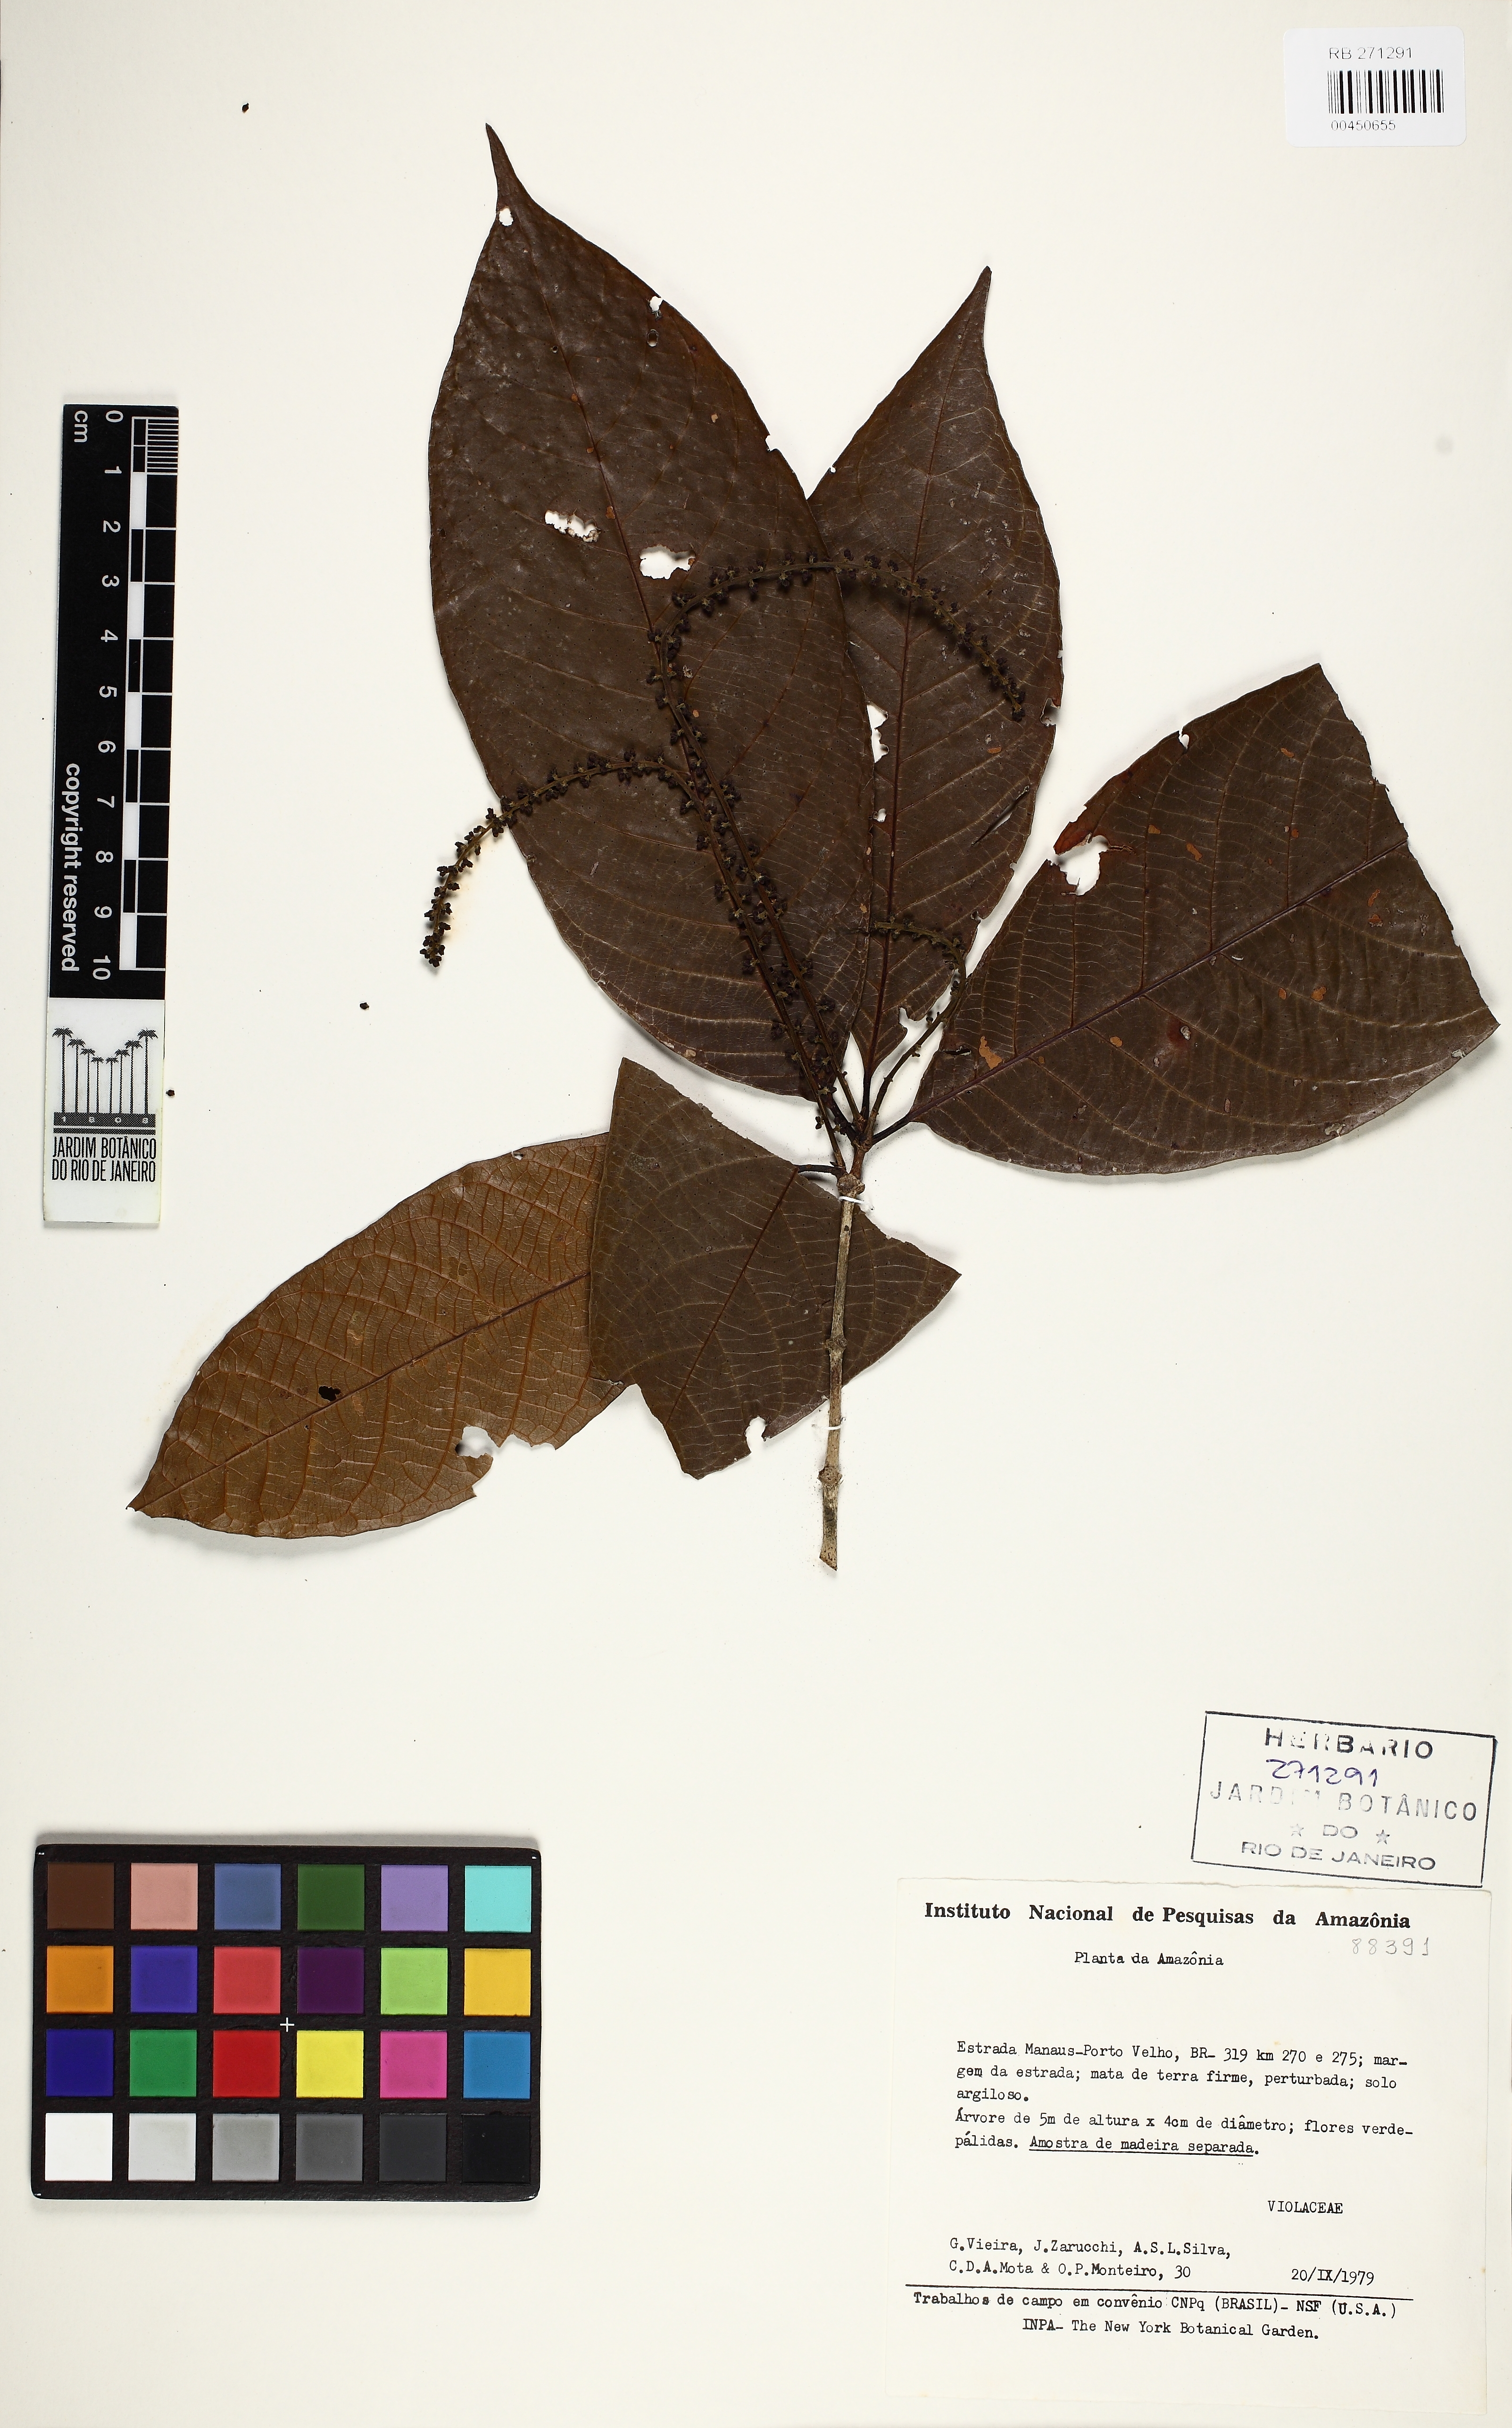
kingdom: Plantae
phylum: Tracheophyta
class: Magnoliopsida
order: Malpighiales
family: Violaceae
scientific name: Violaceae
